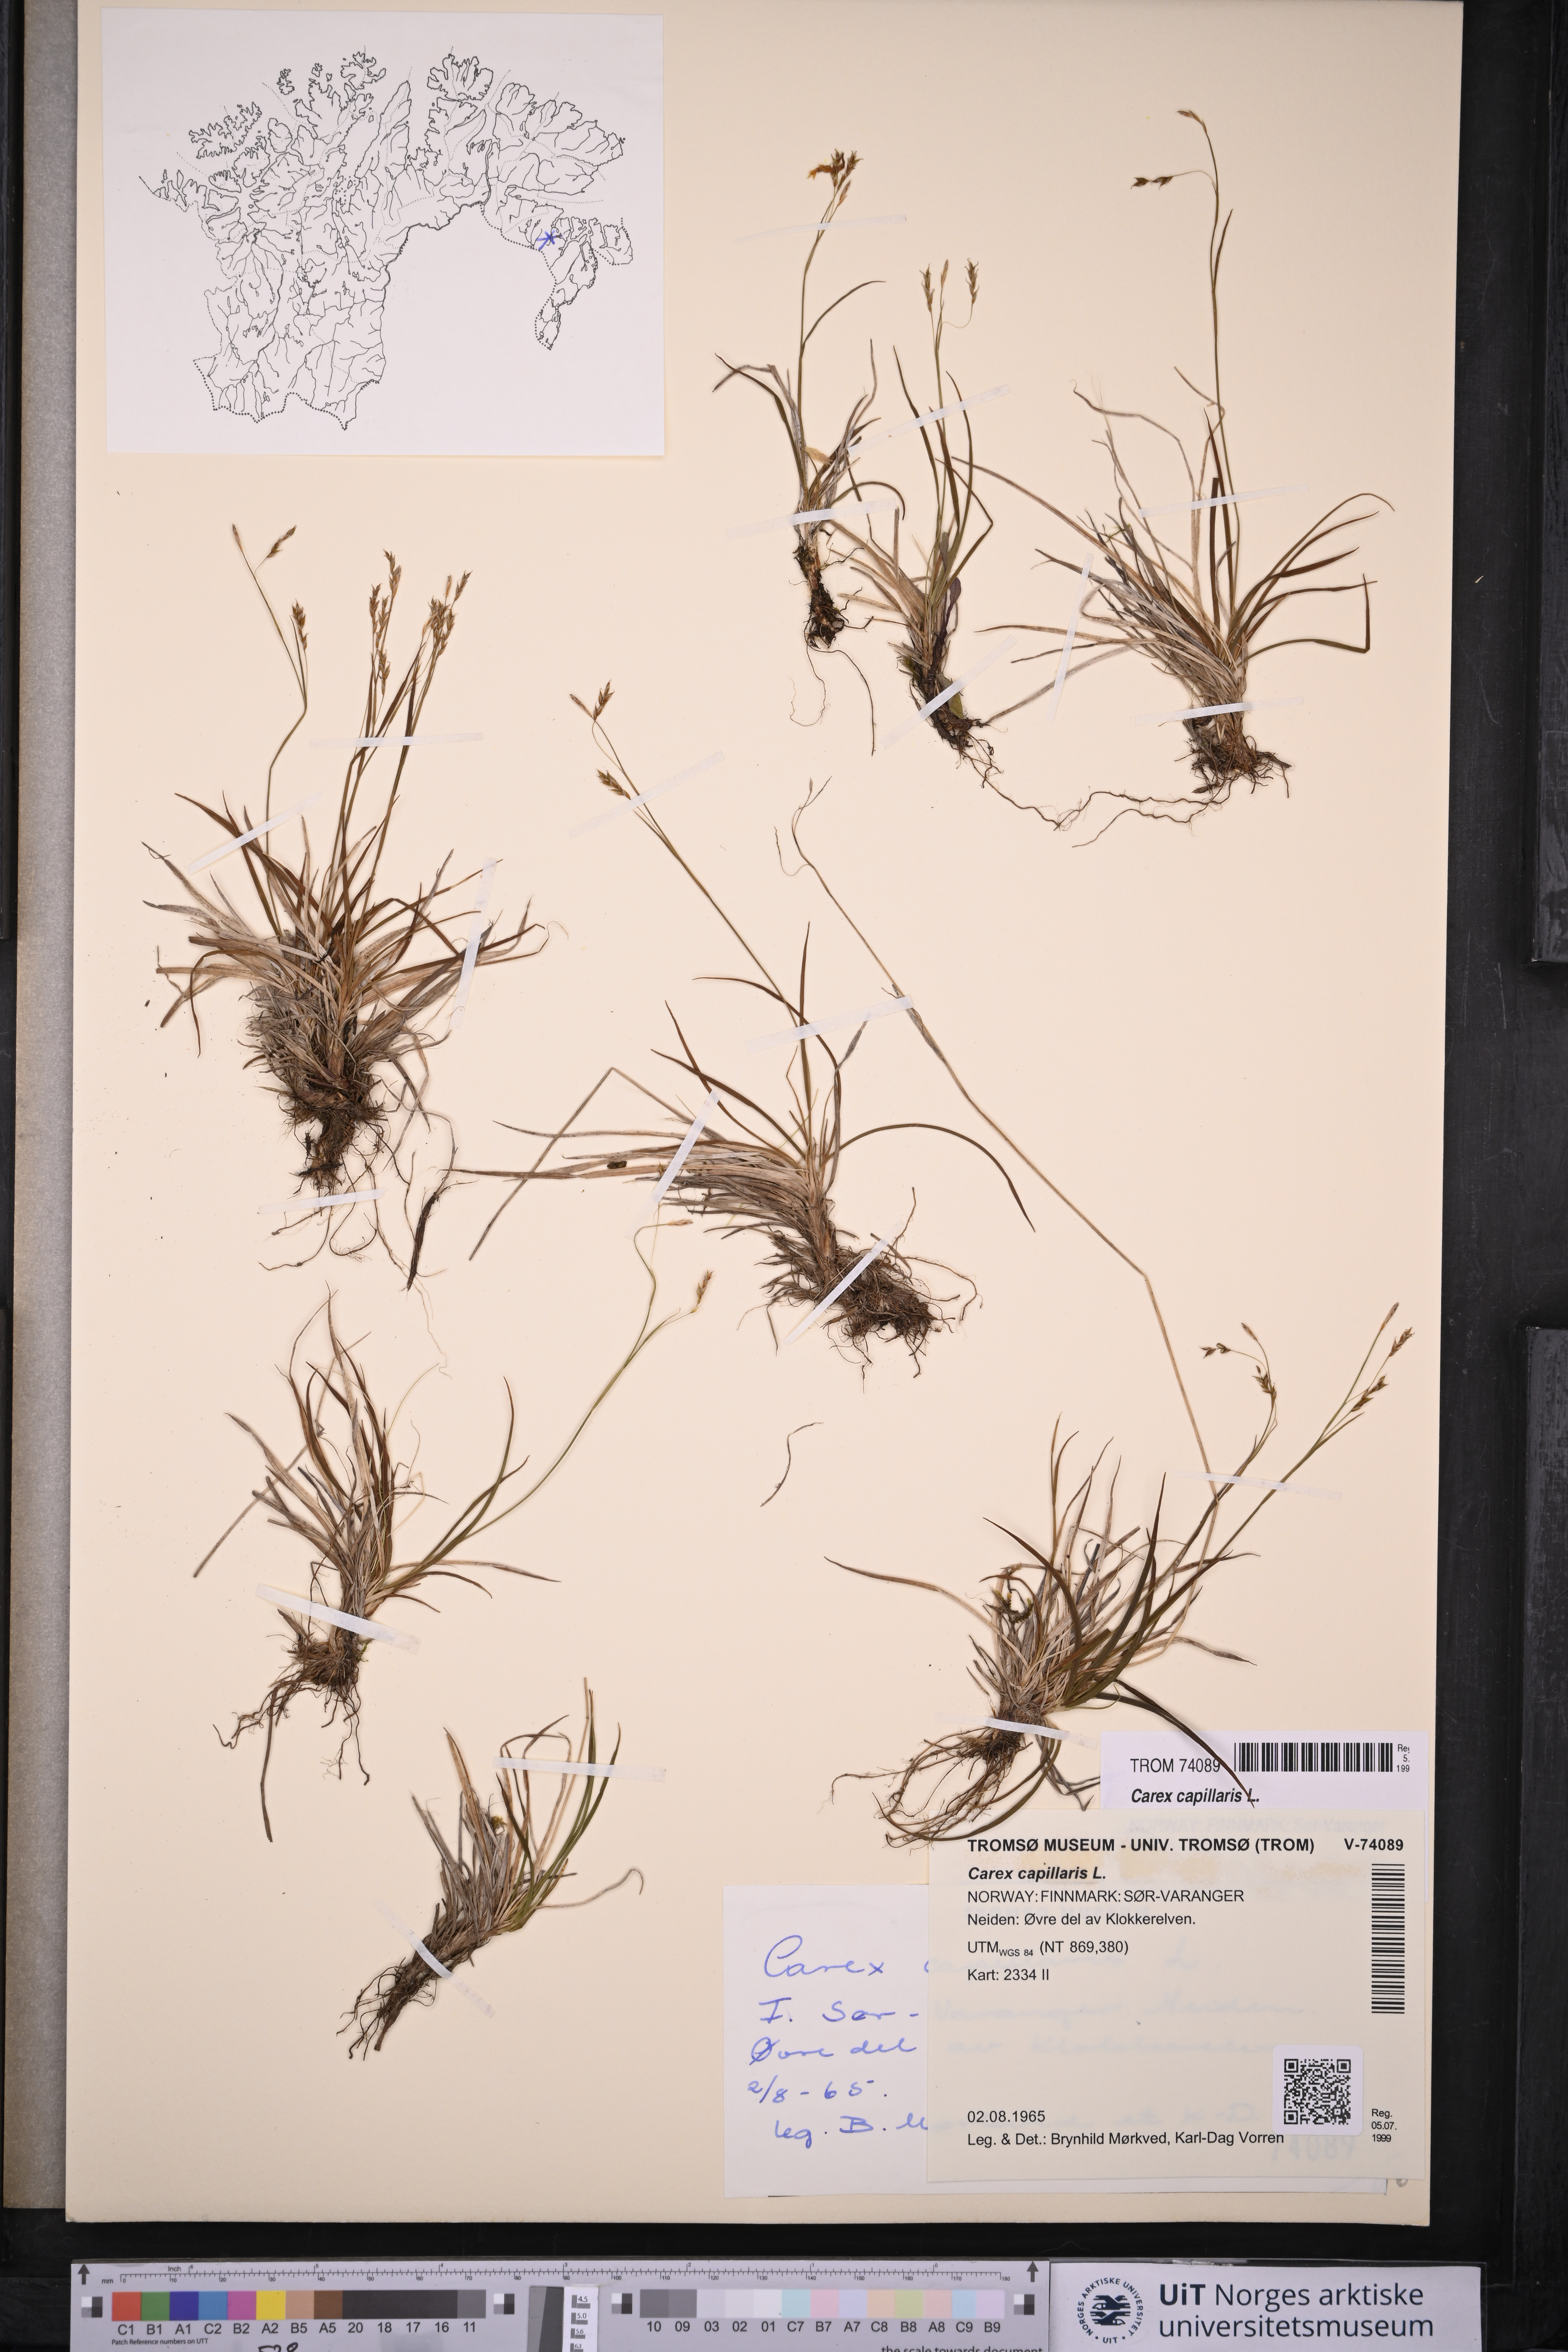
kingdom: Plantae
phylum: Tracheophyta
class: Liliopsida
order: Poales
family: Cyperaceae
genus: Carex
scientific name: Carex capillaris
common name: Hair sedge
